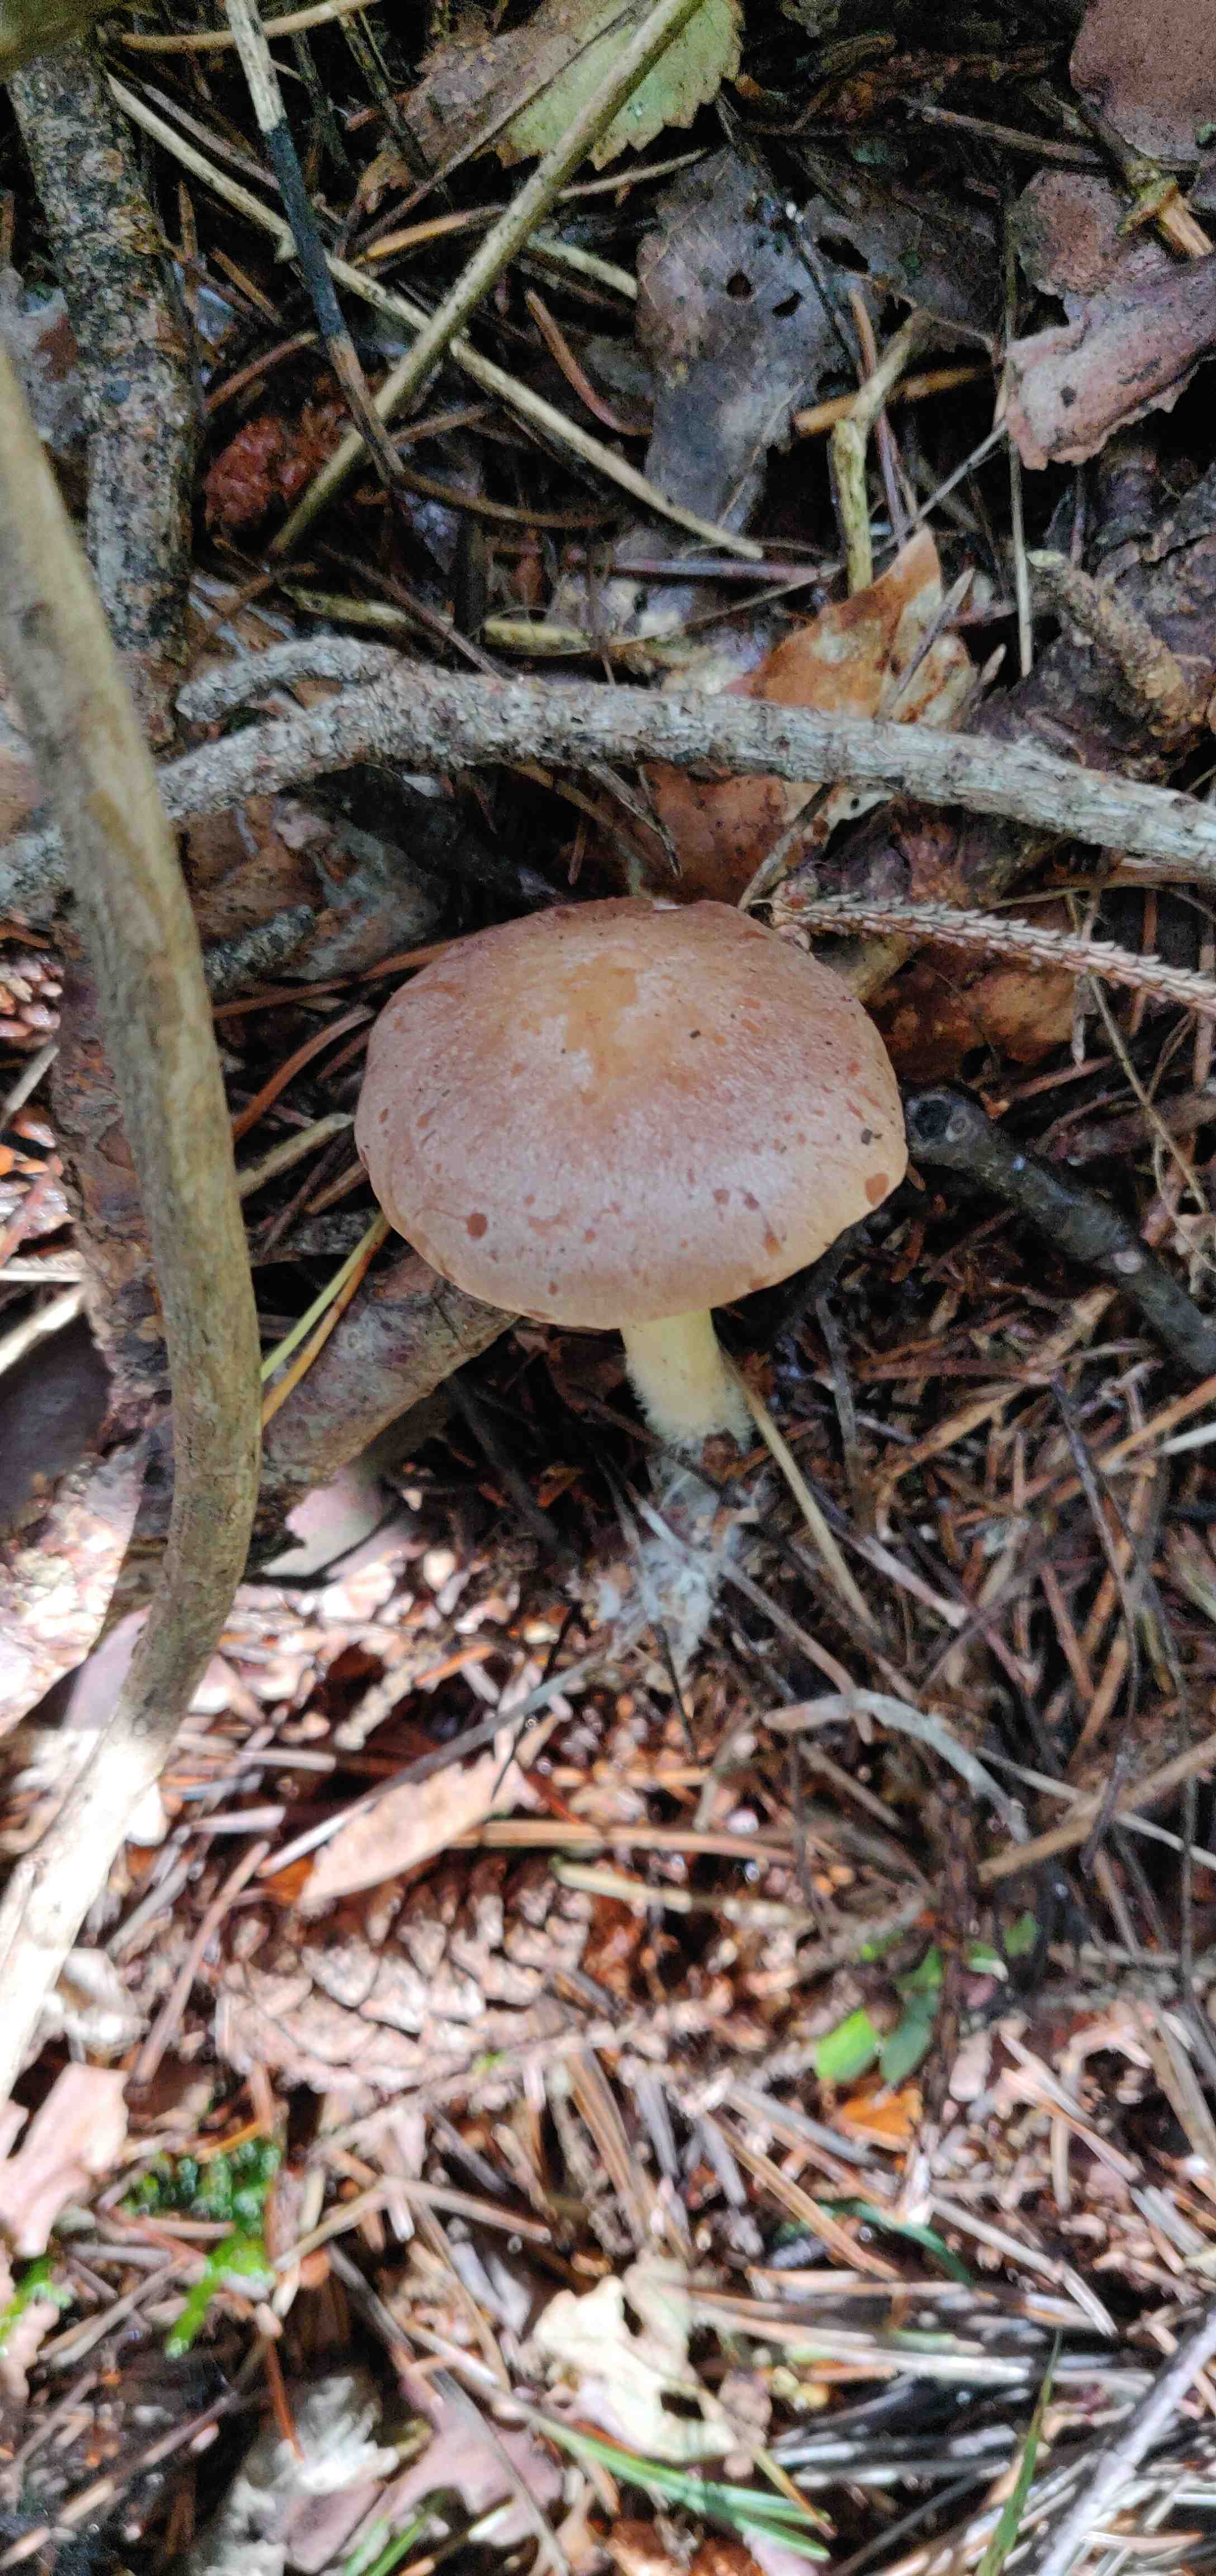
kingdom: Fungi
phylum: Basidiomycota
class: Agaricomycetes
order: Agaricales
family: Omphalotaceae
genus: Collybiopsis
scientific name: Collybiopsis peronata
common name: bestøvlet fladhat
